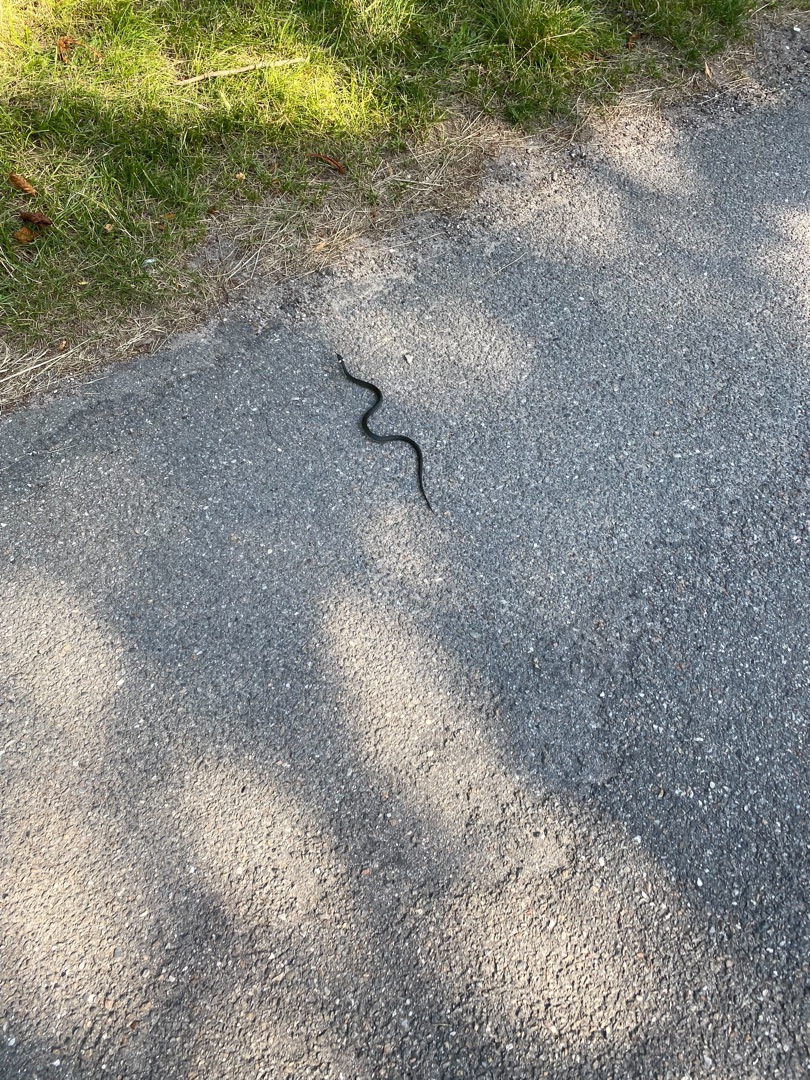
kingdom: Animalia
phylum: Chordata
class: Squamata
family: Colubridae
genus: Natrix
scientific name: Natrix natrix
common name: Snog
